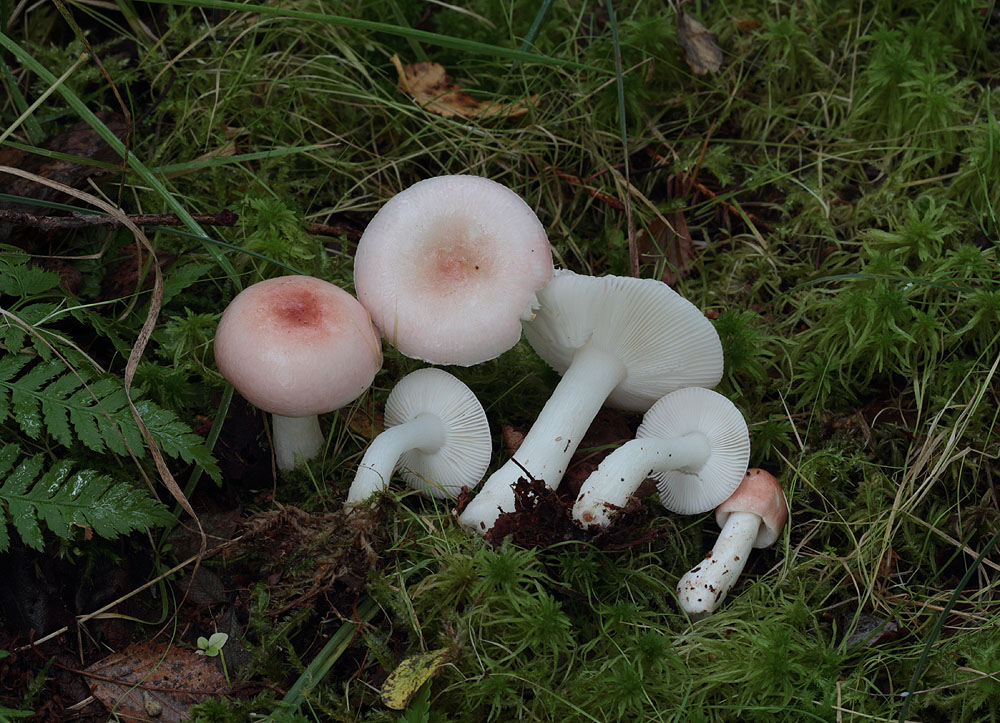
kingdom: Fungi
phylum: Basidiomycota
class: Agaricomycetes
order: Russulales
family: Russulaceae
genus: Russula
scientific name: Russula betularum
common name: bleg gift-skørhat
